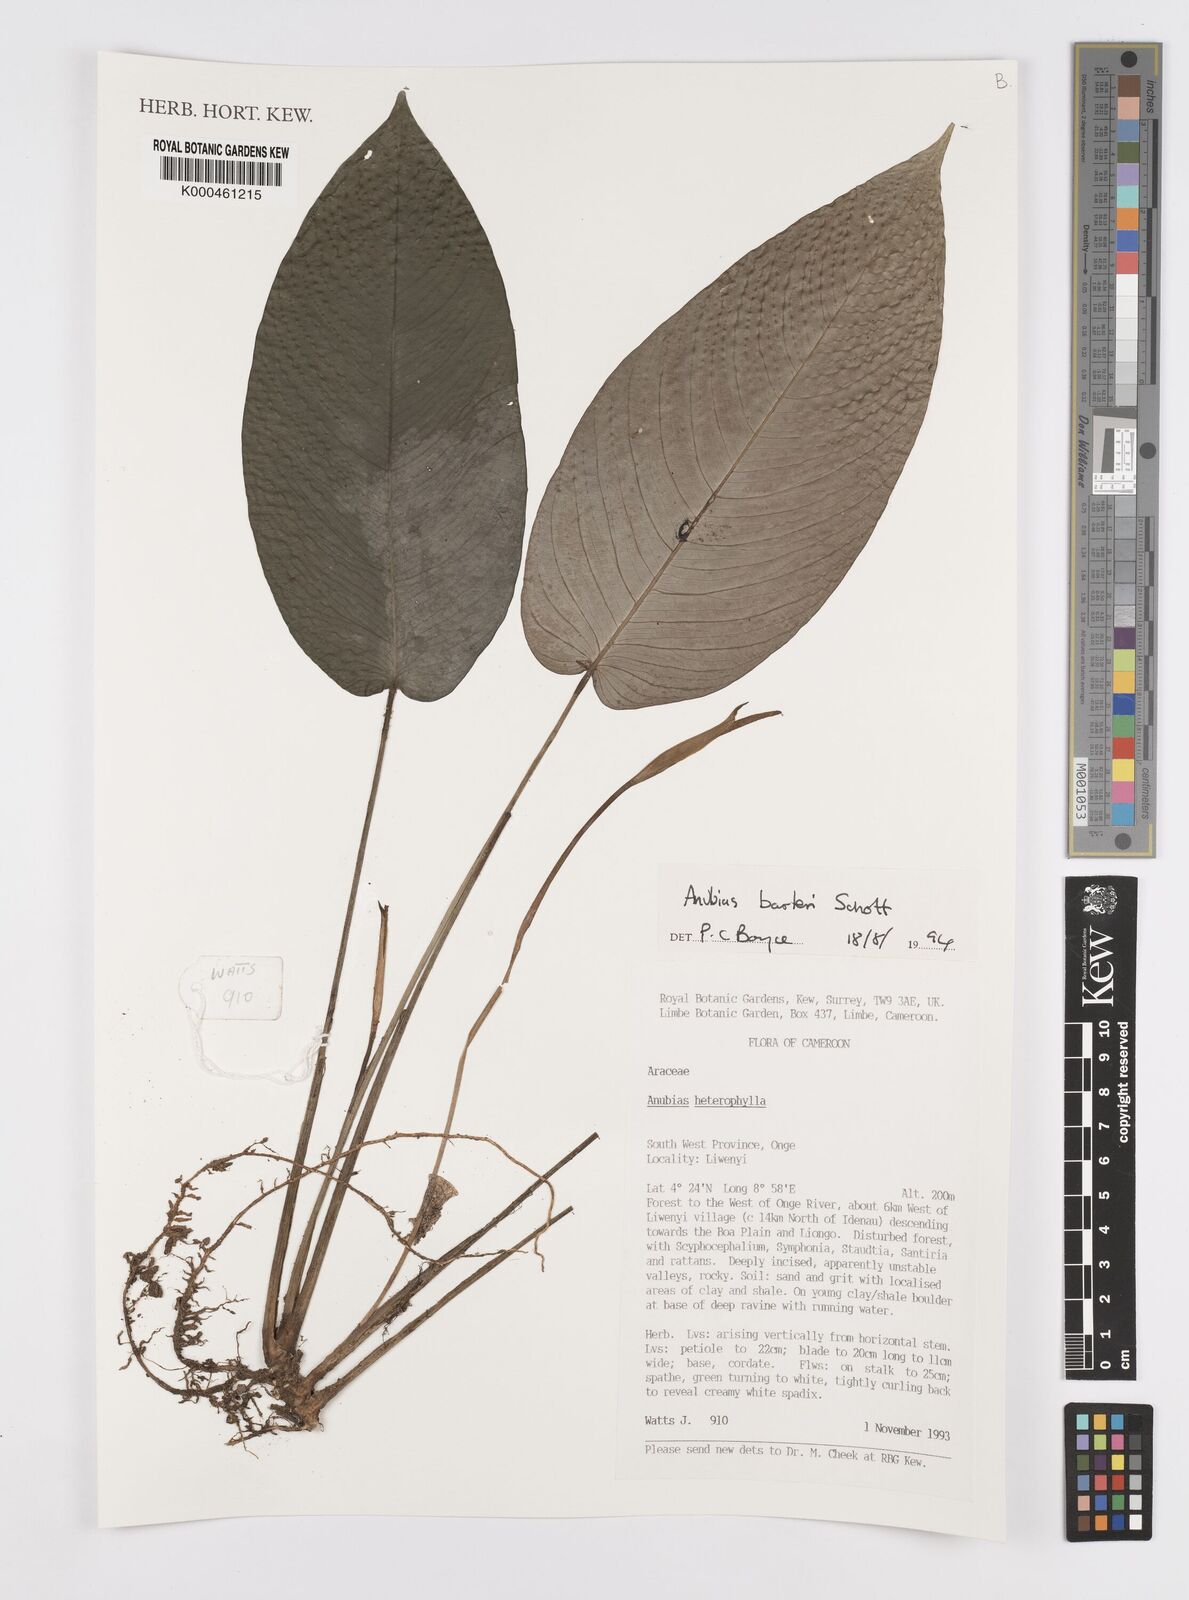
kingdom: Plantae
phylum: Tracheophyta
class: Liliopsida
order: Alismatales
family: Araceae
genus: Anubias
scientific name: Anubias barteri
